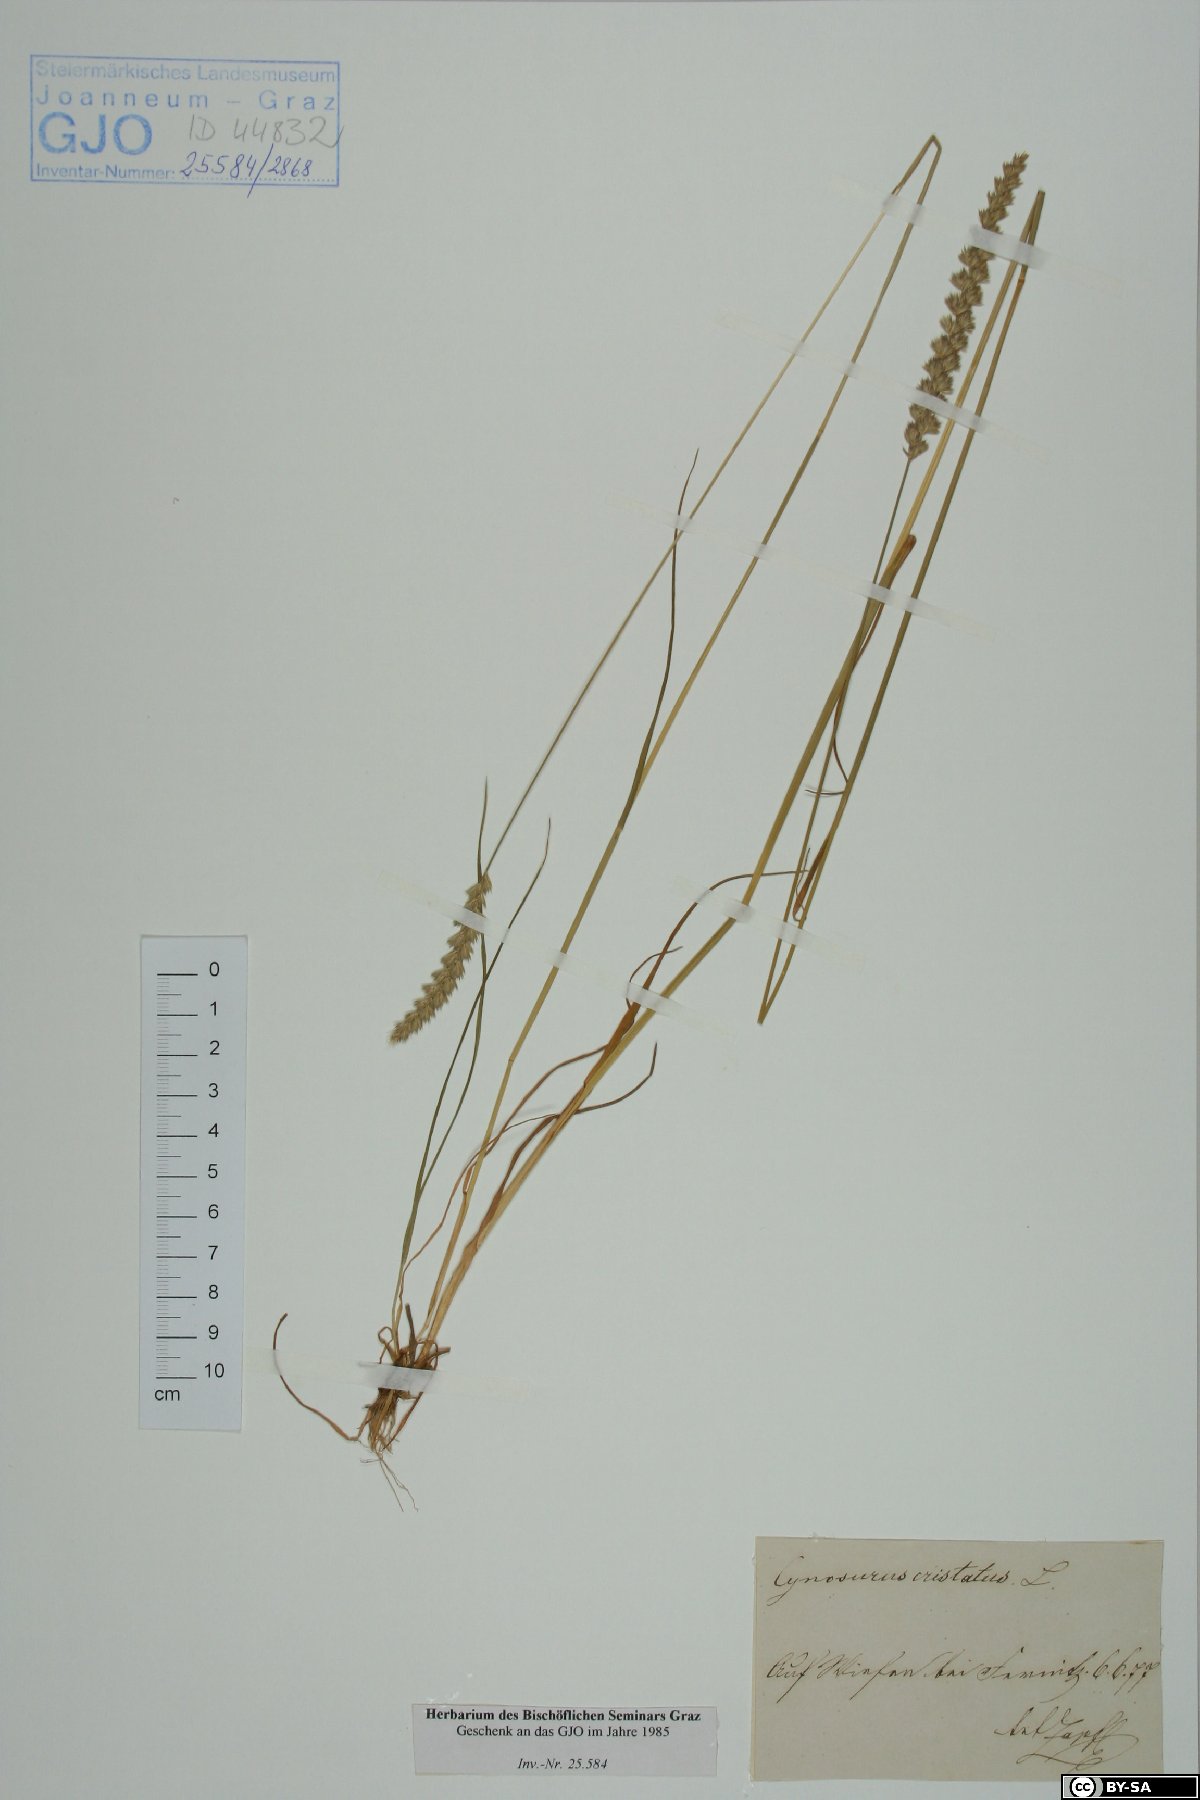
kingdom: Plantae
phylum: Tracheophyta
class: Liliopsida
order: Poales
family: Poaceae
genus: Cynosurus
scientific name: Cynosurus cristatus
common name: Crested dog's-tail
